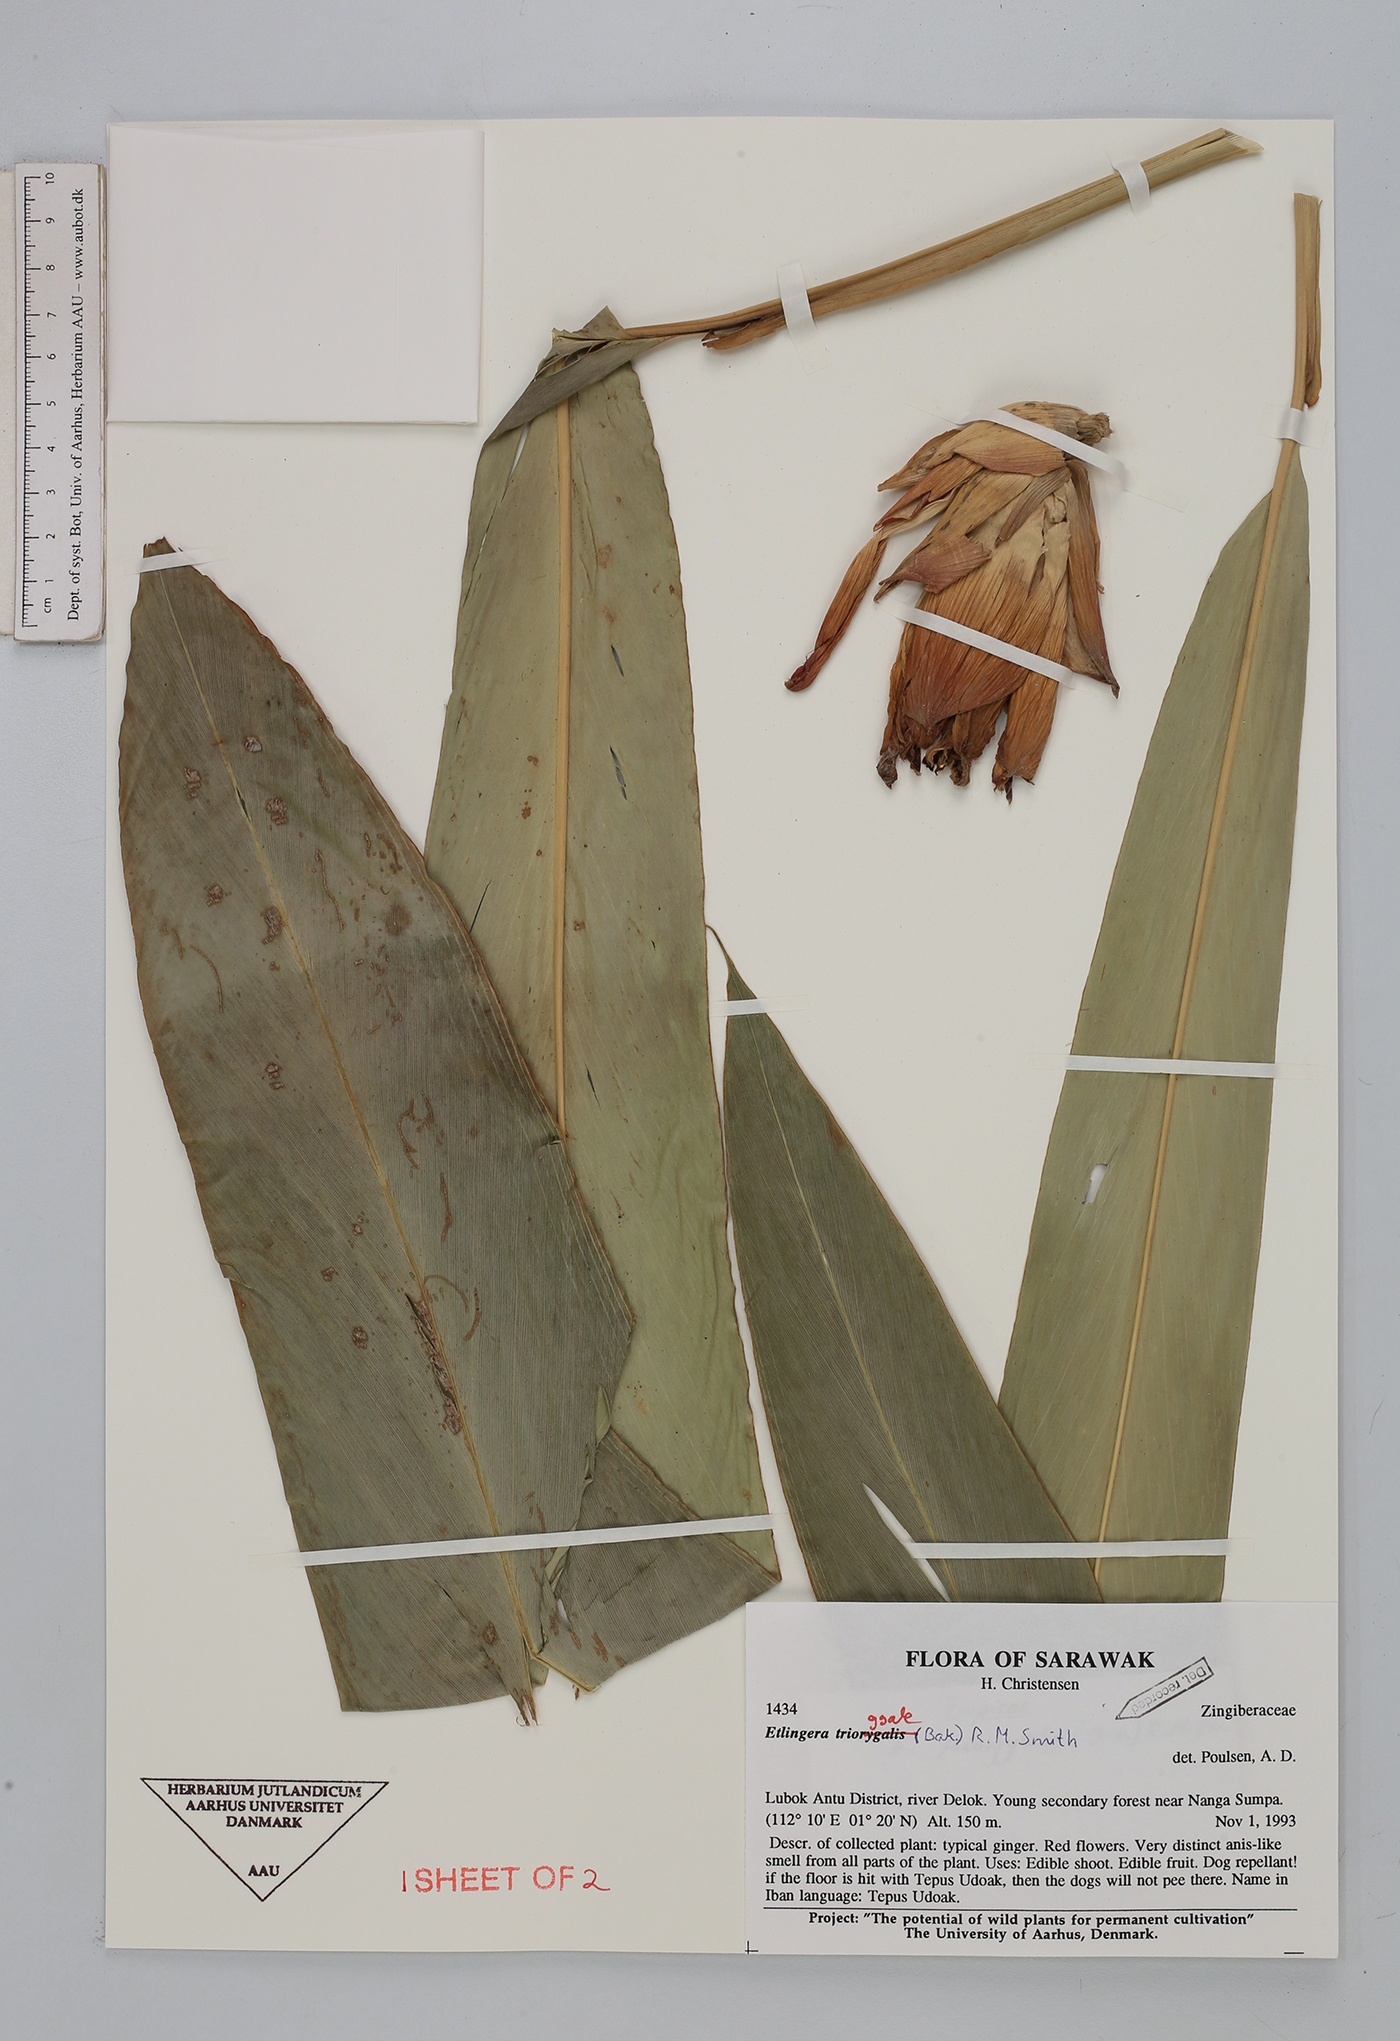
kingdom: Plantae
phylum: Tracheophyta
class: Liliopsida
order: Zingiberales
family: Zingiberaceae
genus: Etlingera
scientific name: Etlingera triorgyalis
